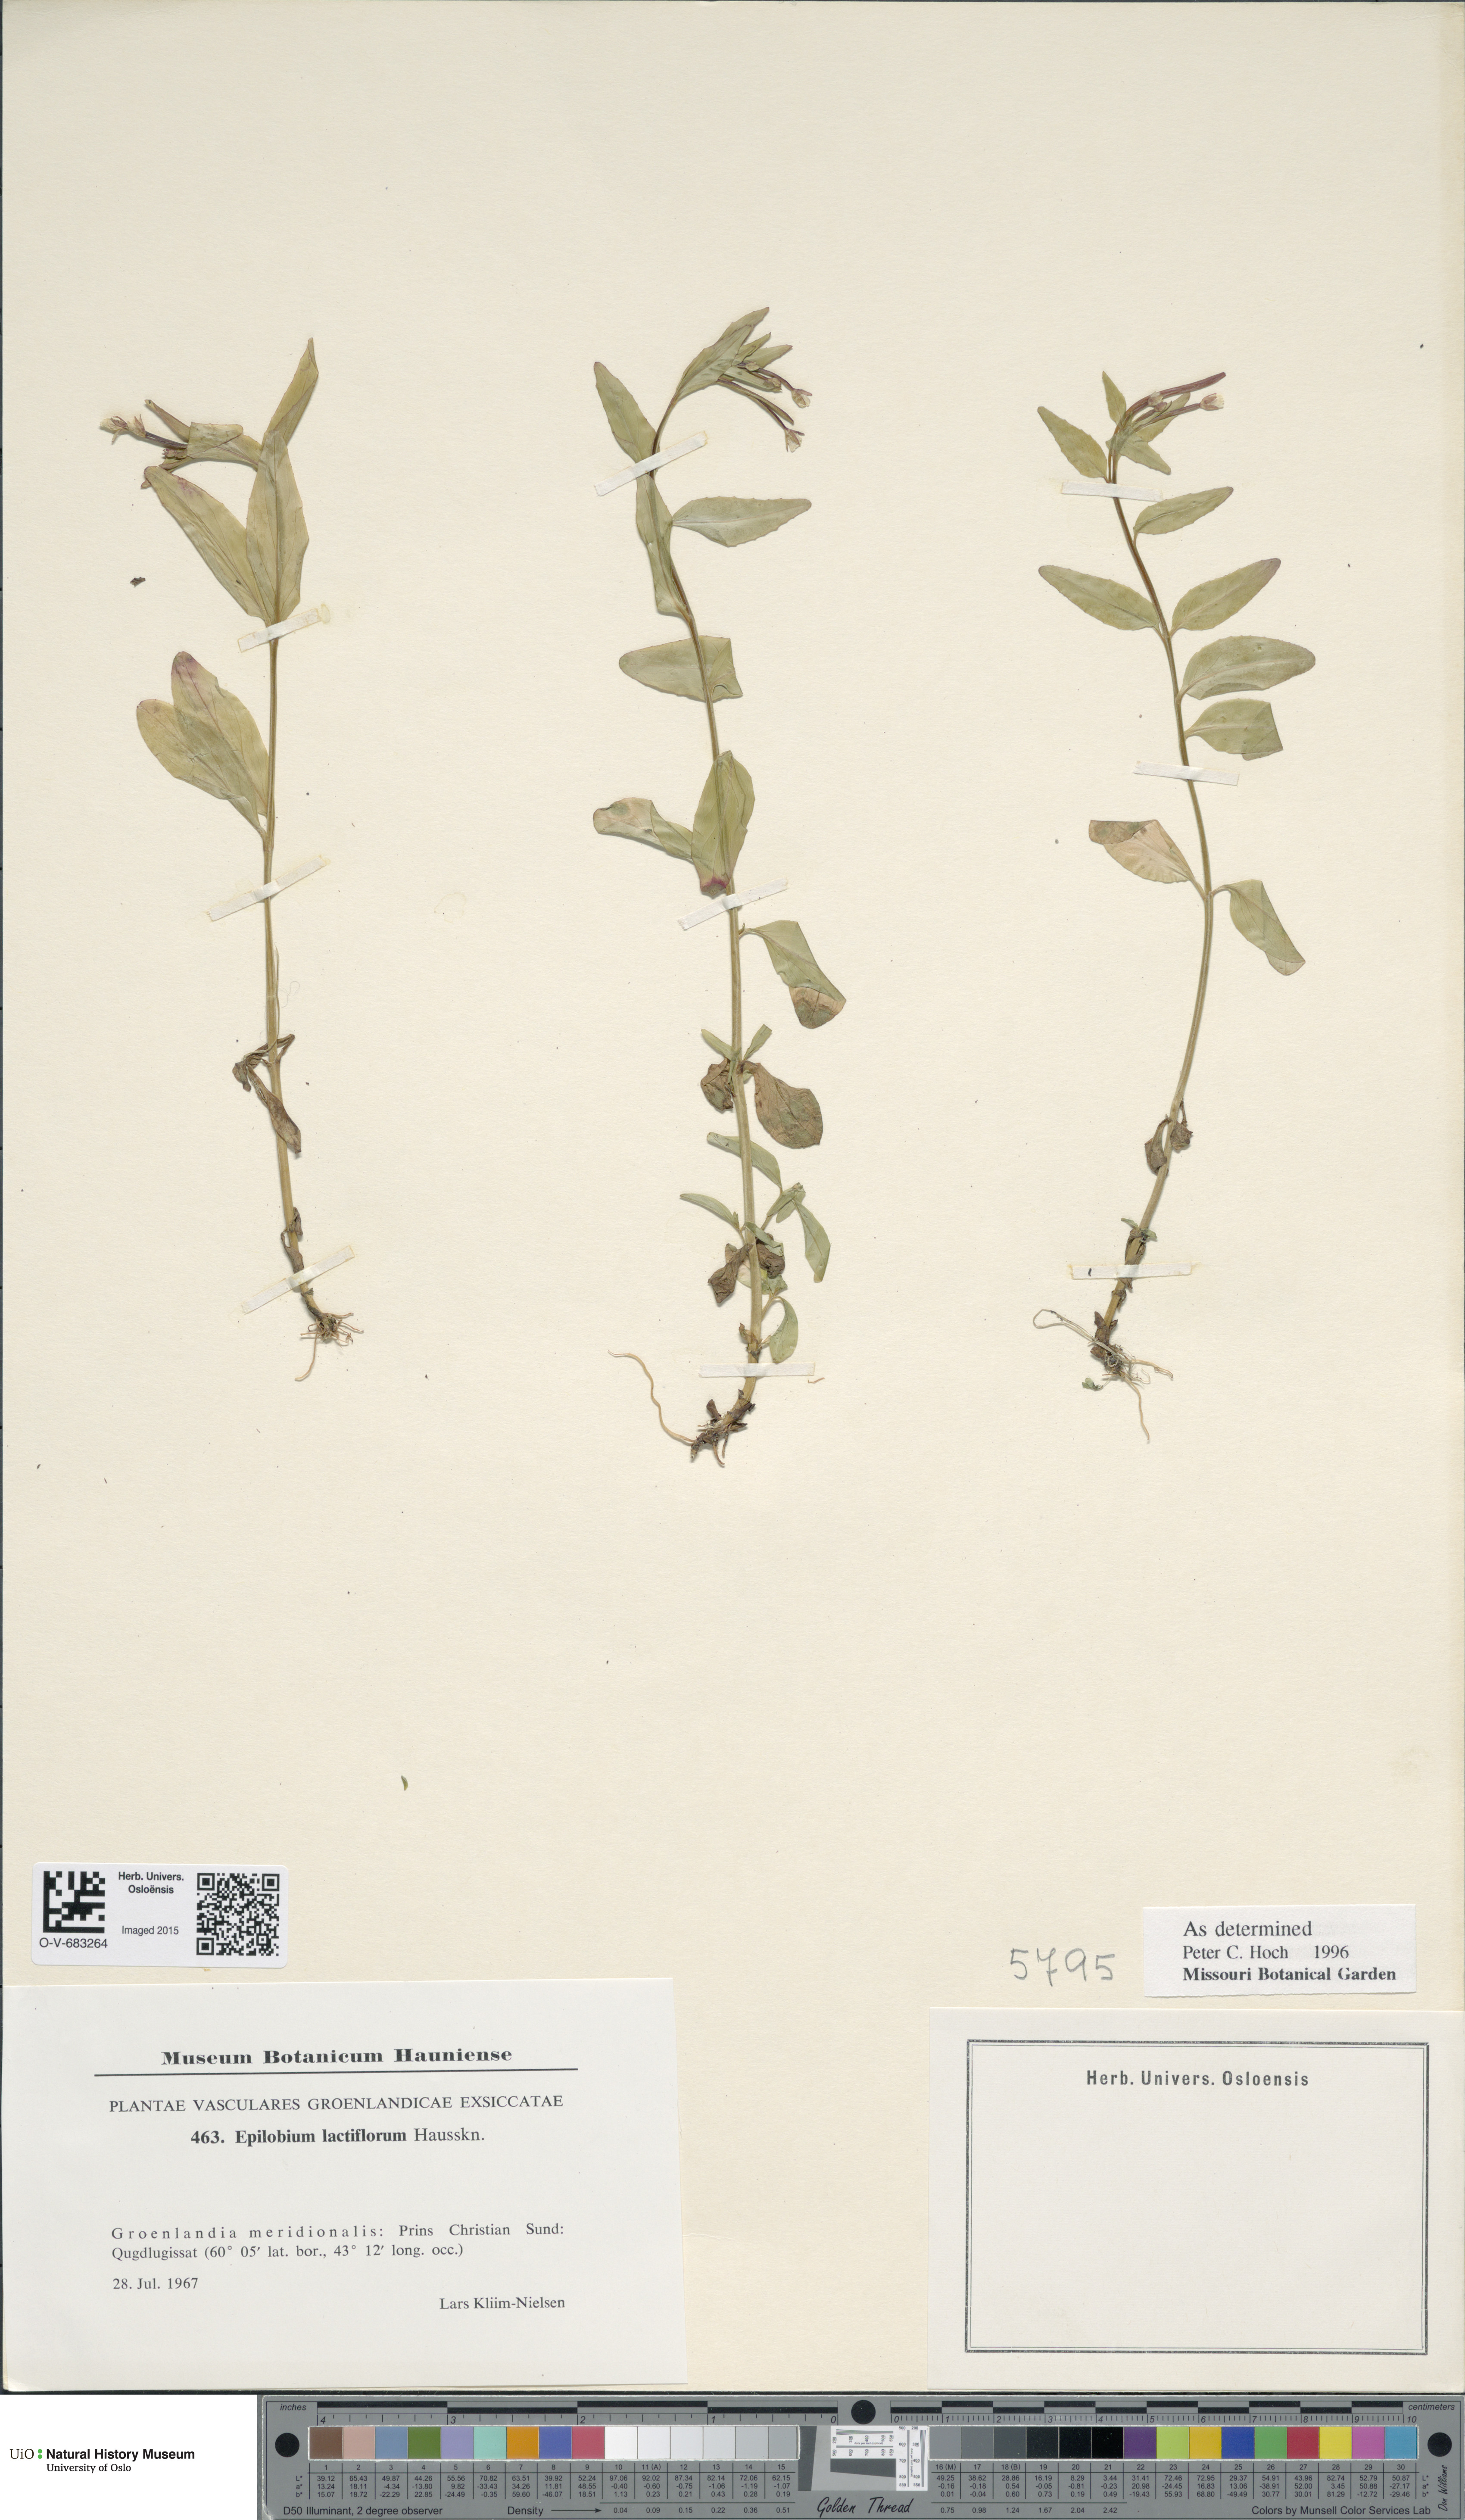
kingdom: Plantae
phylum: Tracheophyta
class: Magnoliopsida
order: Myrtales
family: Onagraceae
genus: Epilobium
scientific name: Epilobium lactiflorum
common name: Milkflower willowherb
